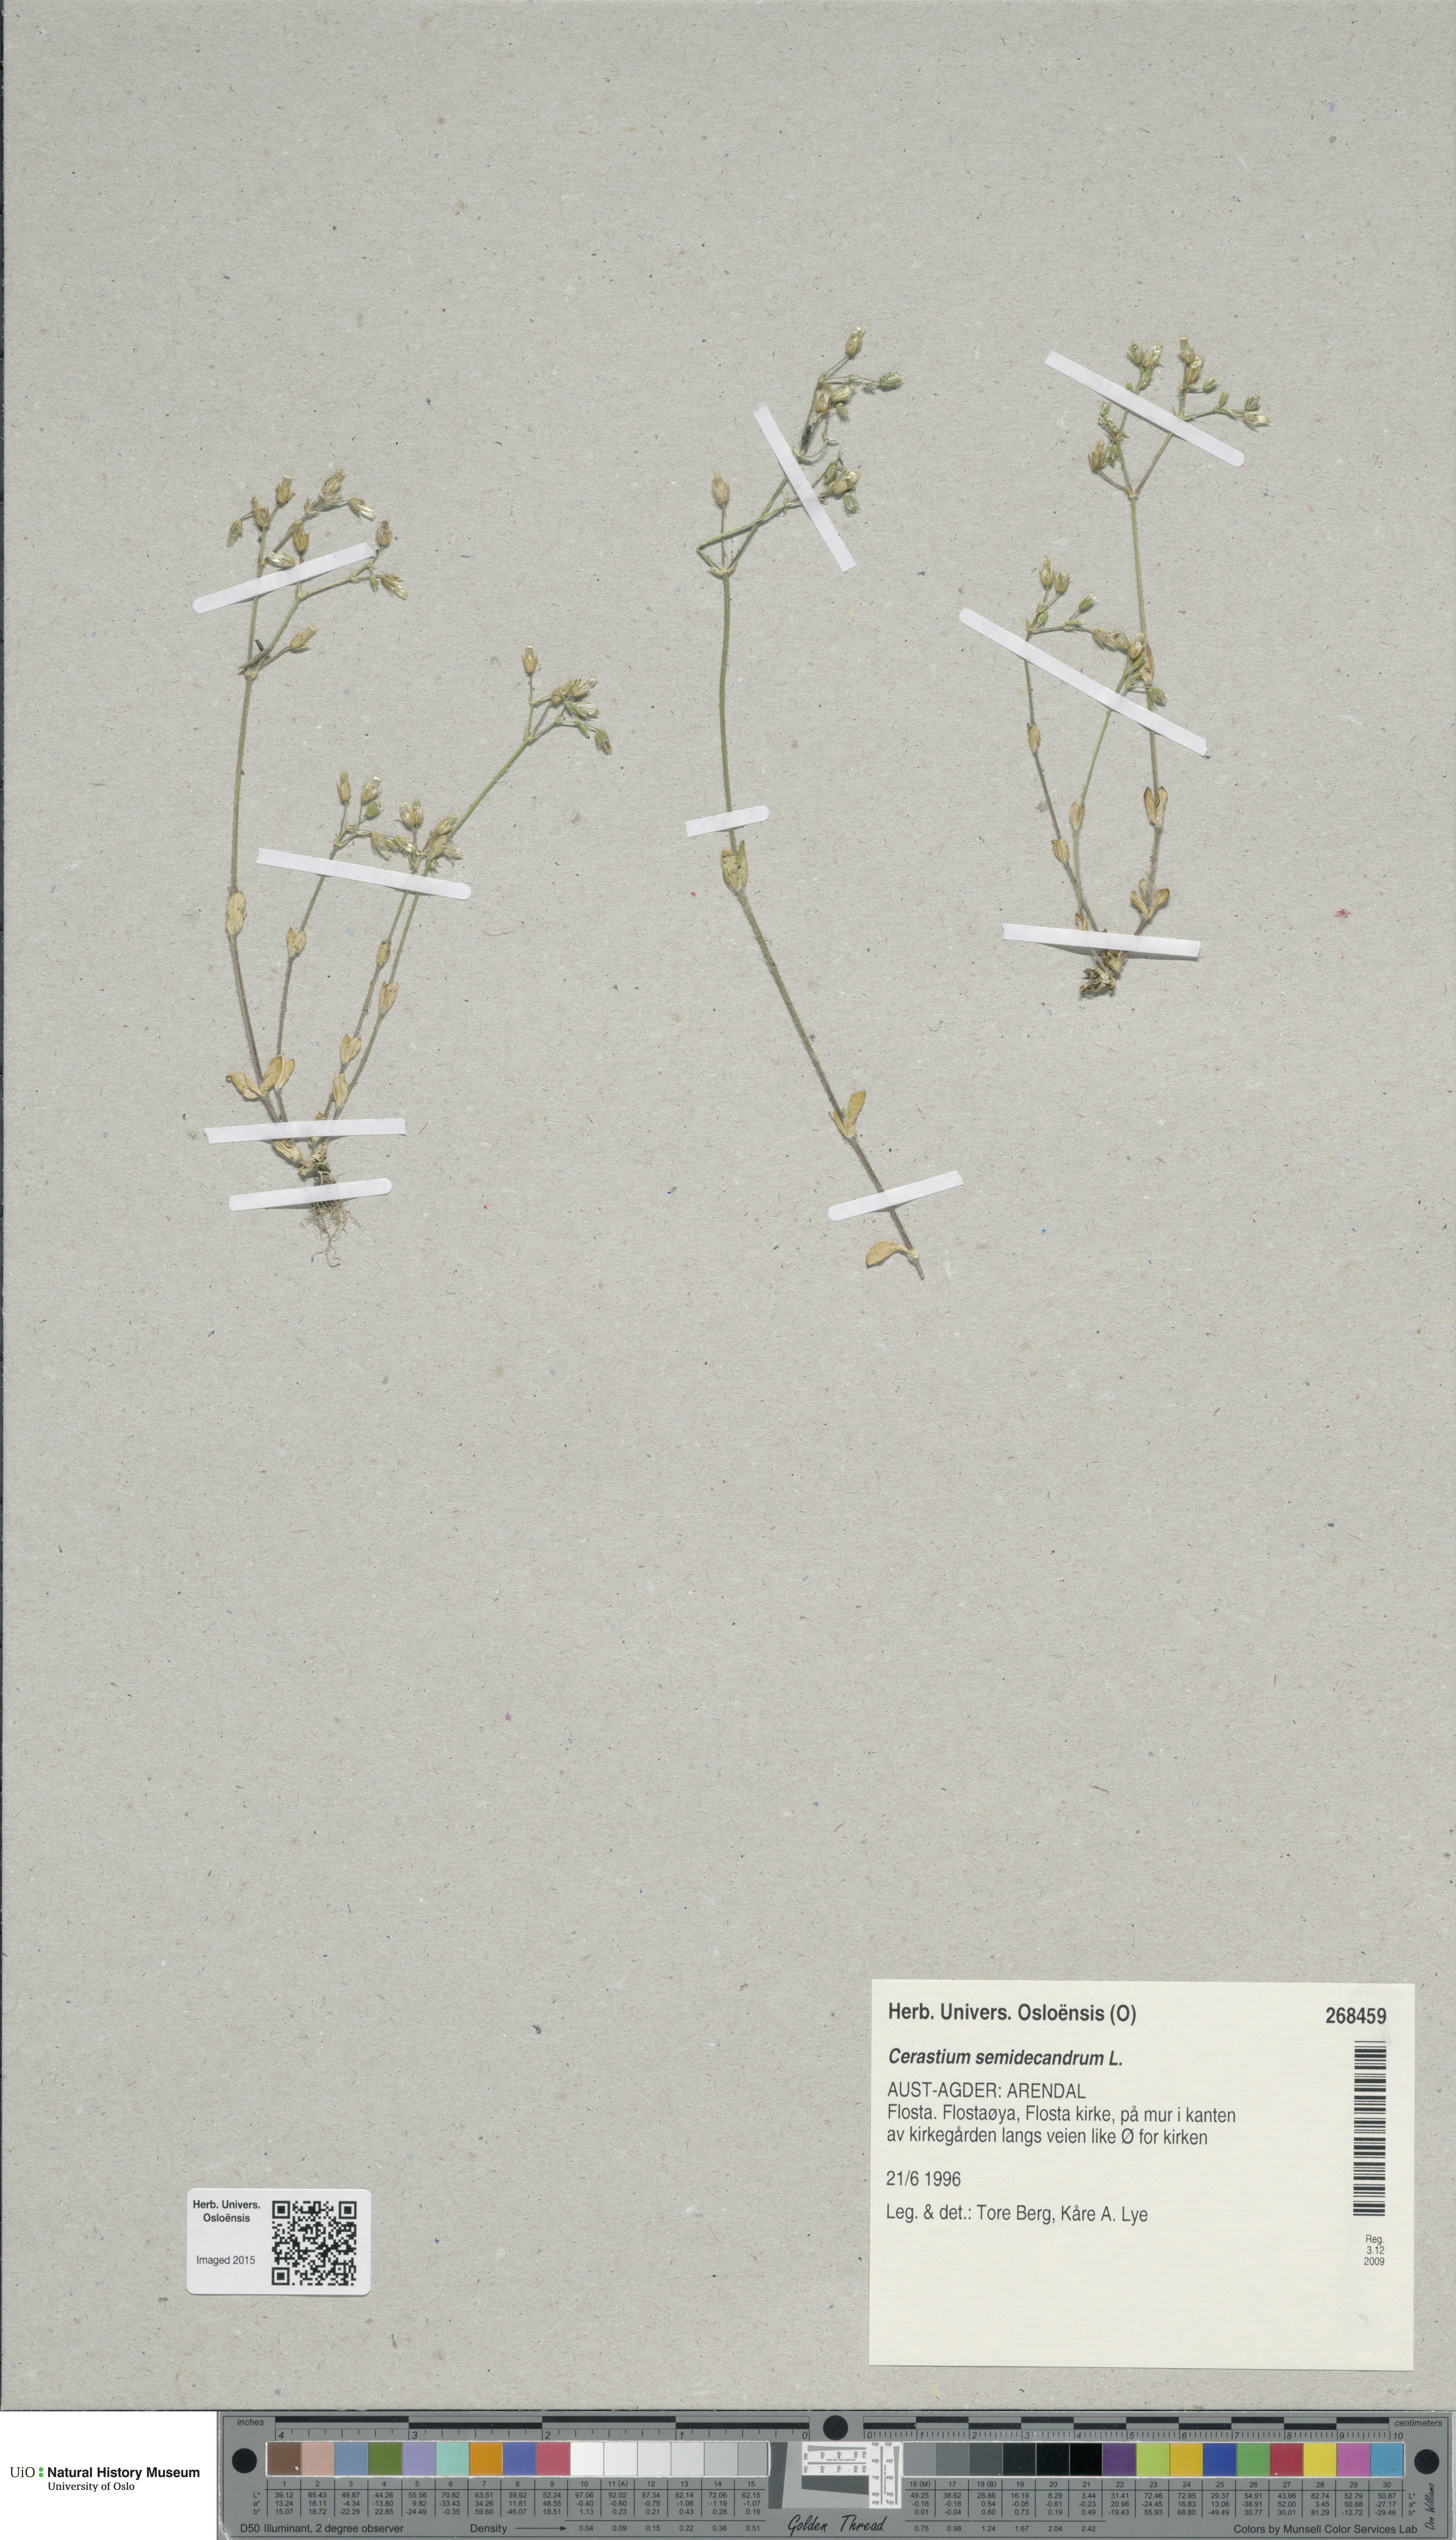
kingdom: Plantae
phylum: Tracheophyta
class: Magnoliopsida
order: Caryophyllales
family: Caryophyllaceae
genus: Cerastium
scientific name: Cerastium semidecandrum
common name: Little mouse-ear
